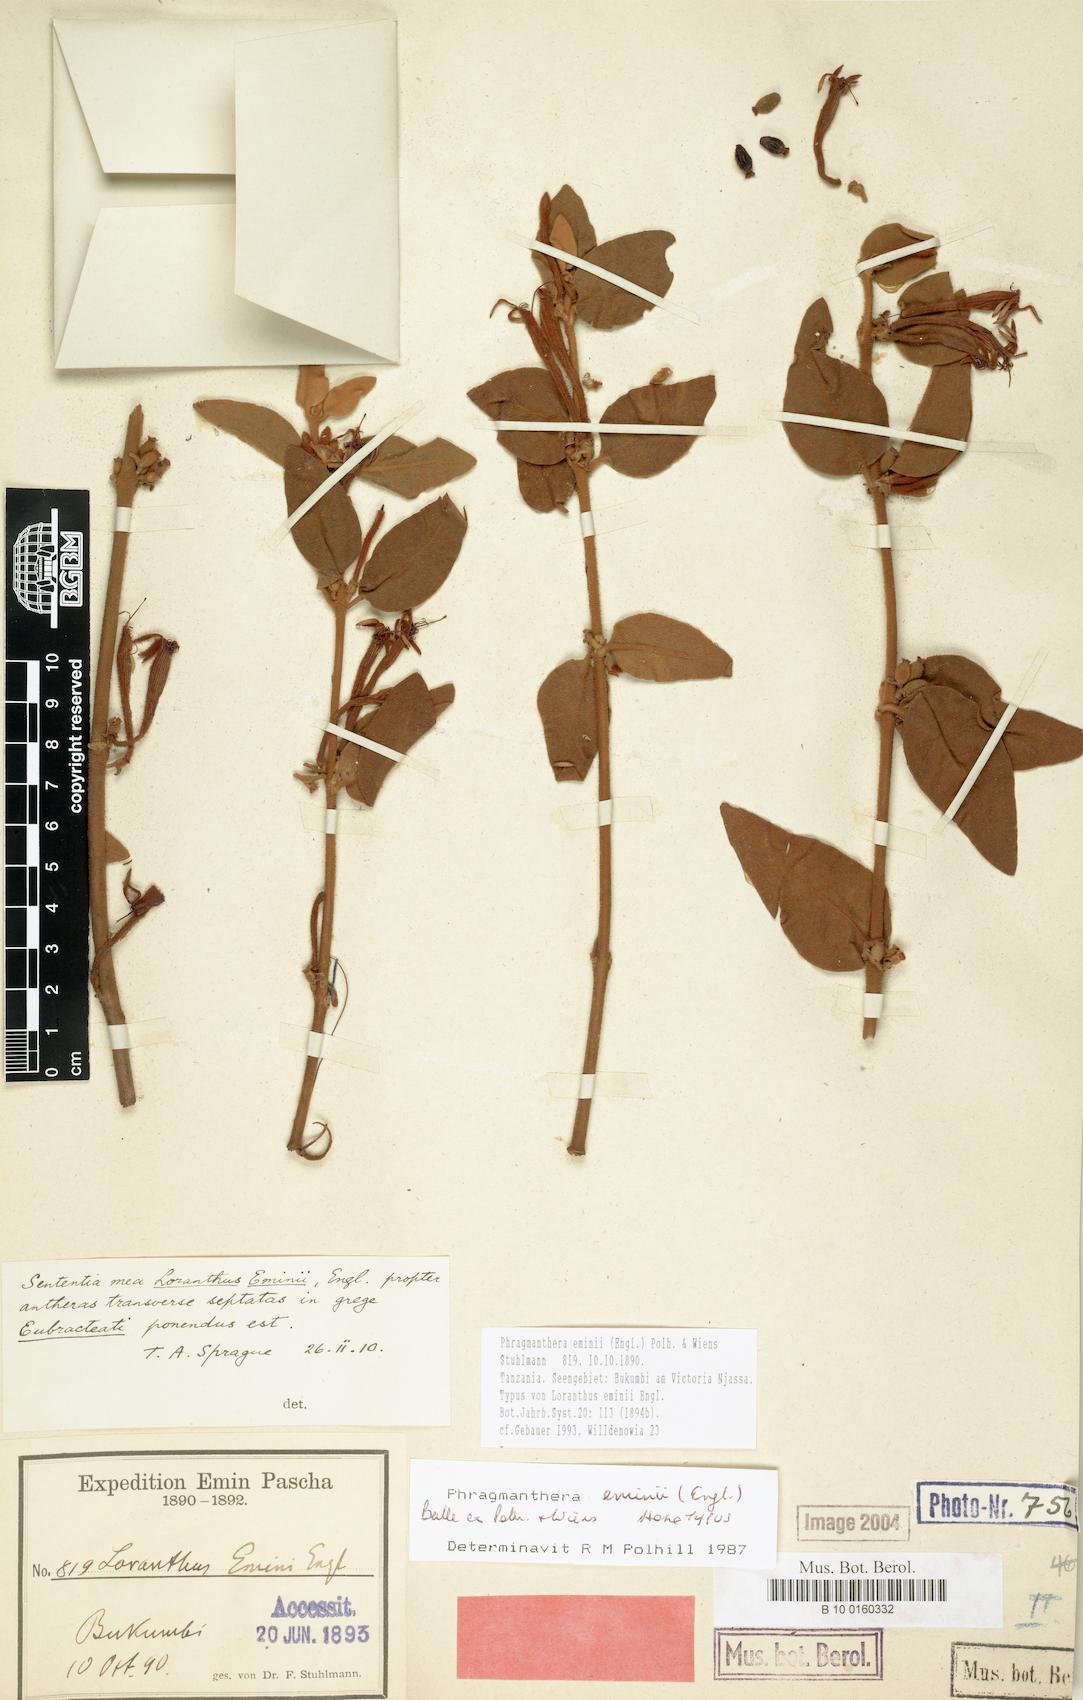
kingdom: Plantae
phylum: Tracheophyta
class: Magnoliopsida
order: Santalales
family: Loranthaceae
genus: Phragmanthera
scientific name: Phragmanthera eminii
